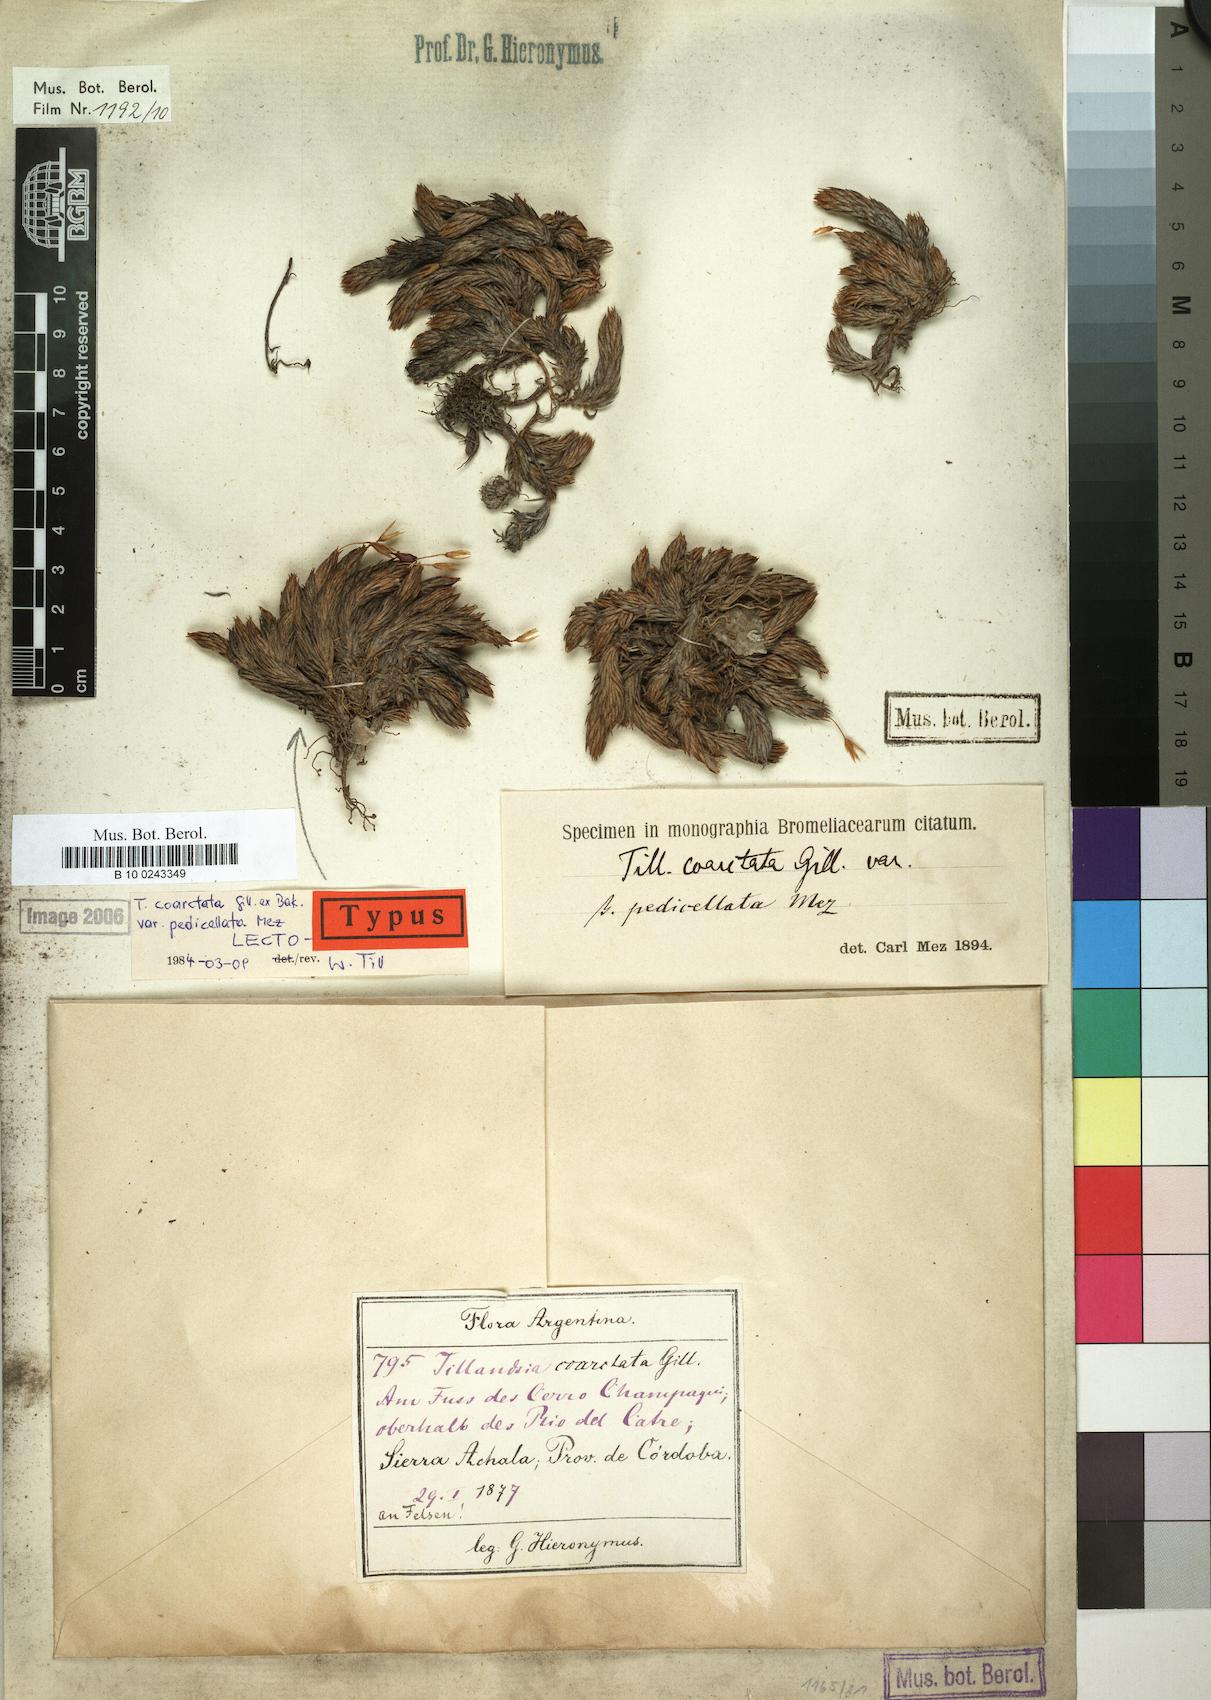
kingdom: Plantae
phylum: Tracheophyta
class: Liliopsida
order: Poales
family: Bromeliaceae
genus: Tillandsia
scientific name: Tillandsia pedicellata
